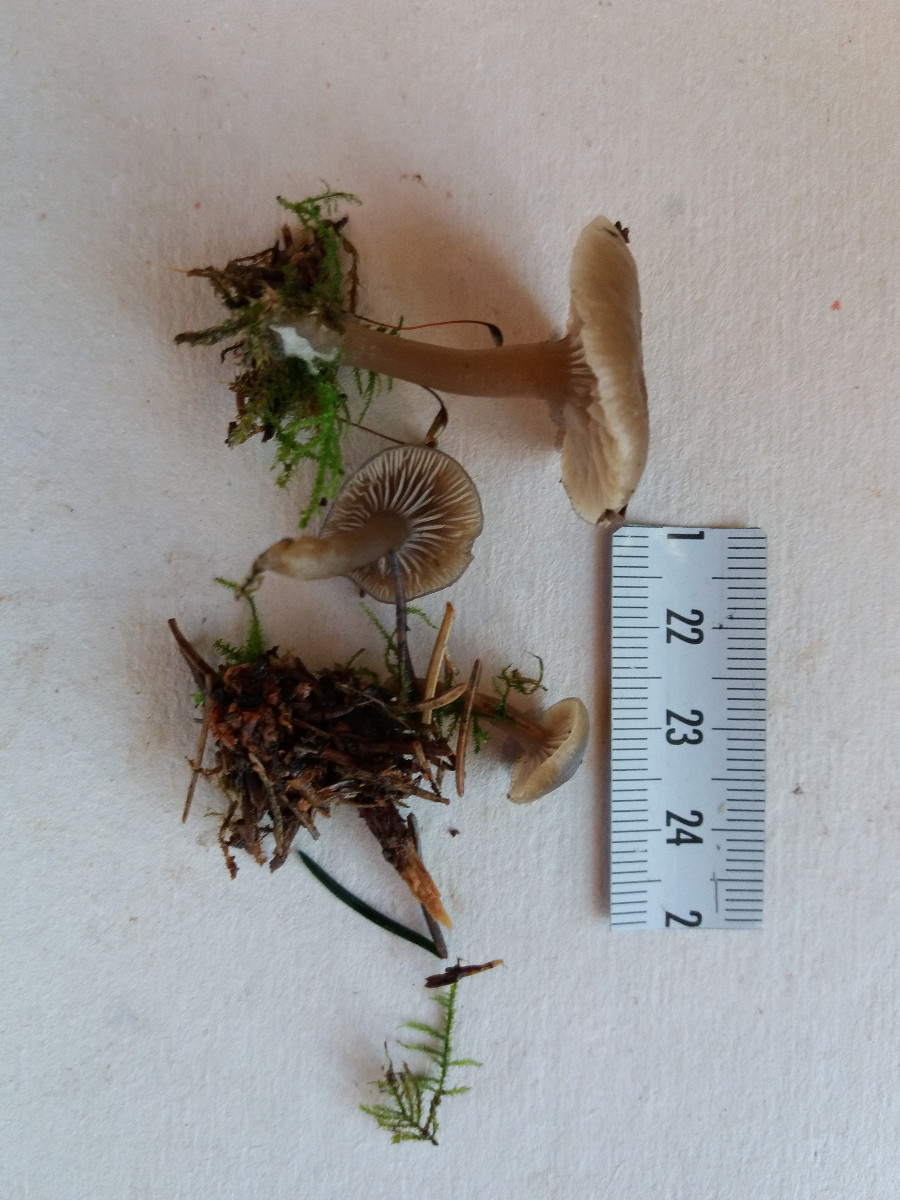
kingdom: Fungi
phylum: Basidiomycota
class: Agaricomycetes
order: Agaricales
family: Tricholomataceae
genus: Clitocybe
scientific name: Clitocybe vibecina
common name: randstribet tragthat
